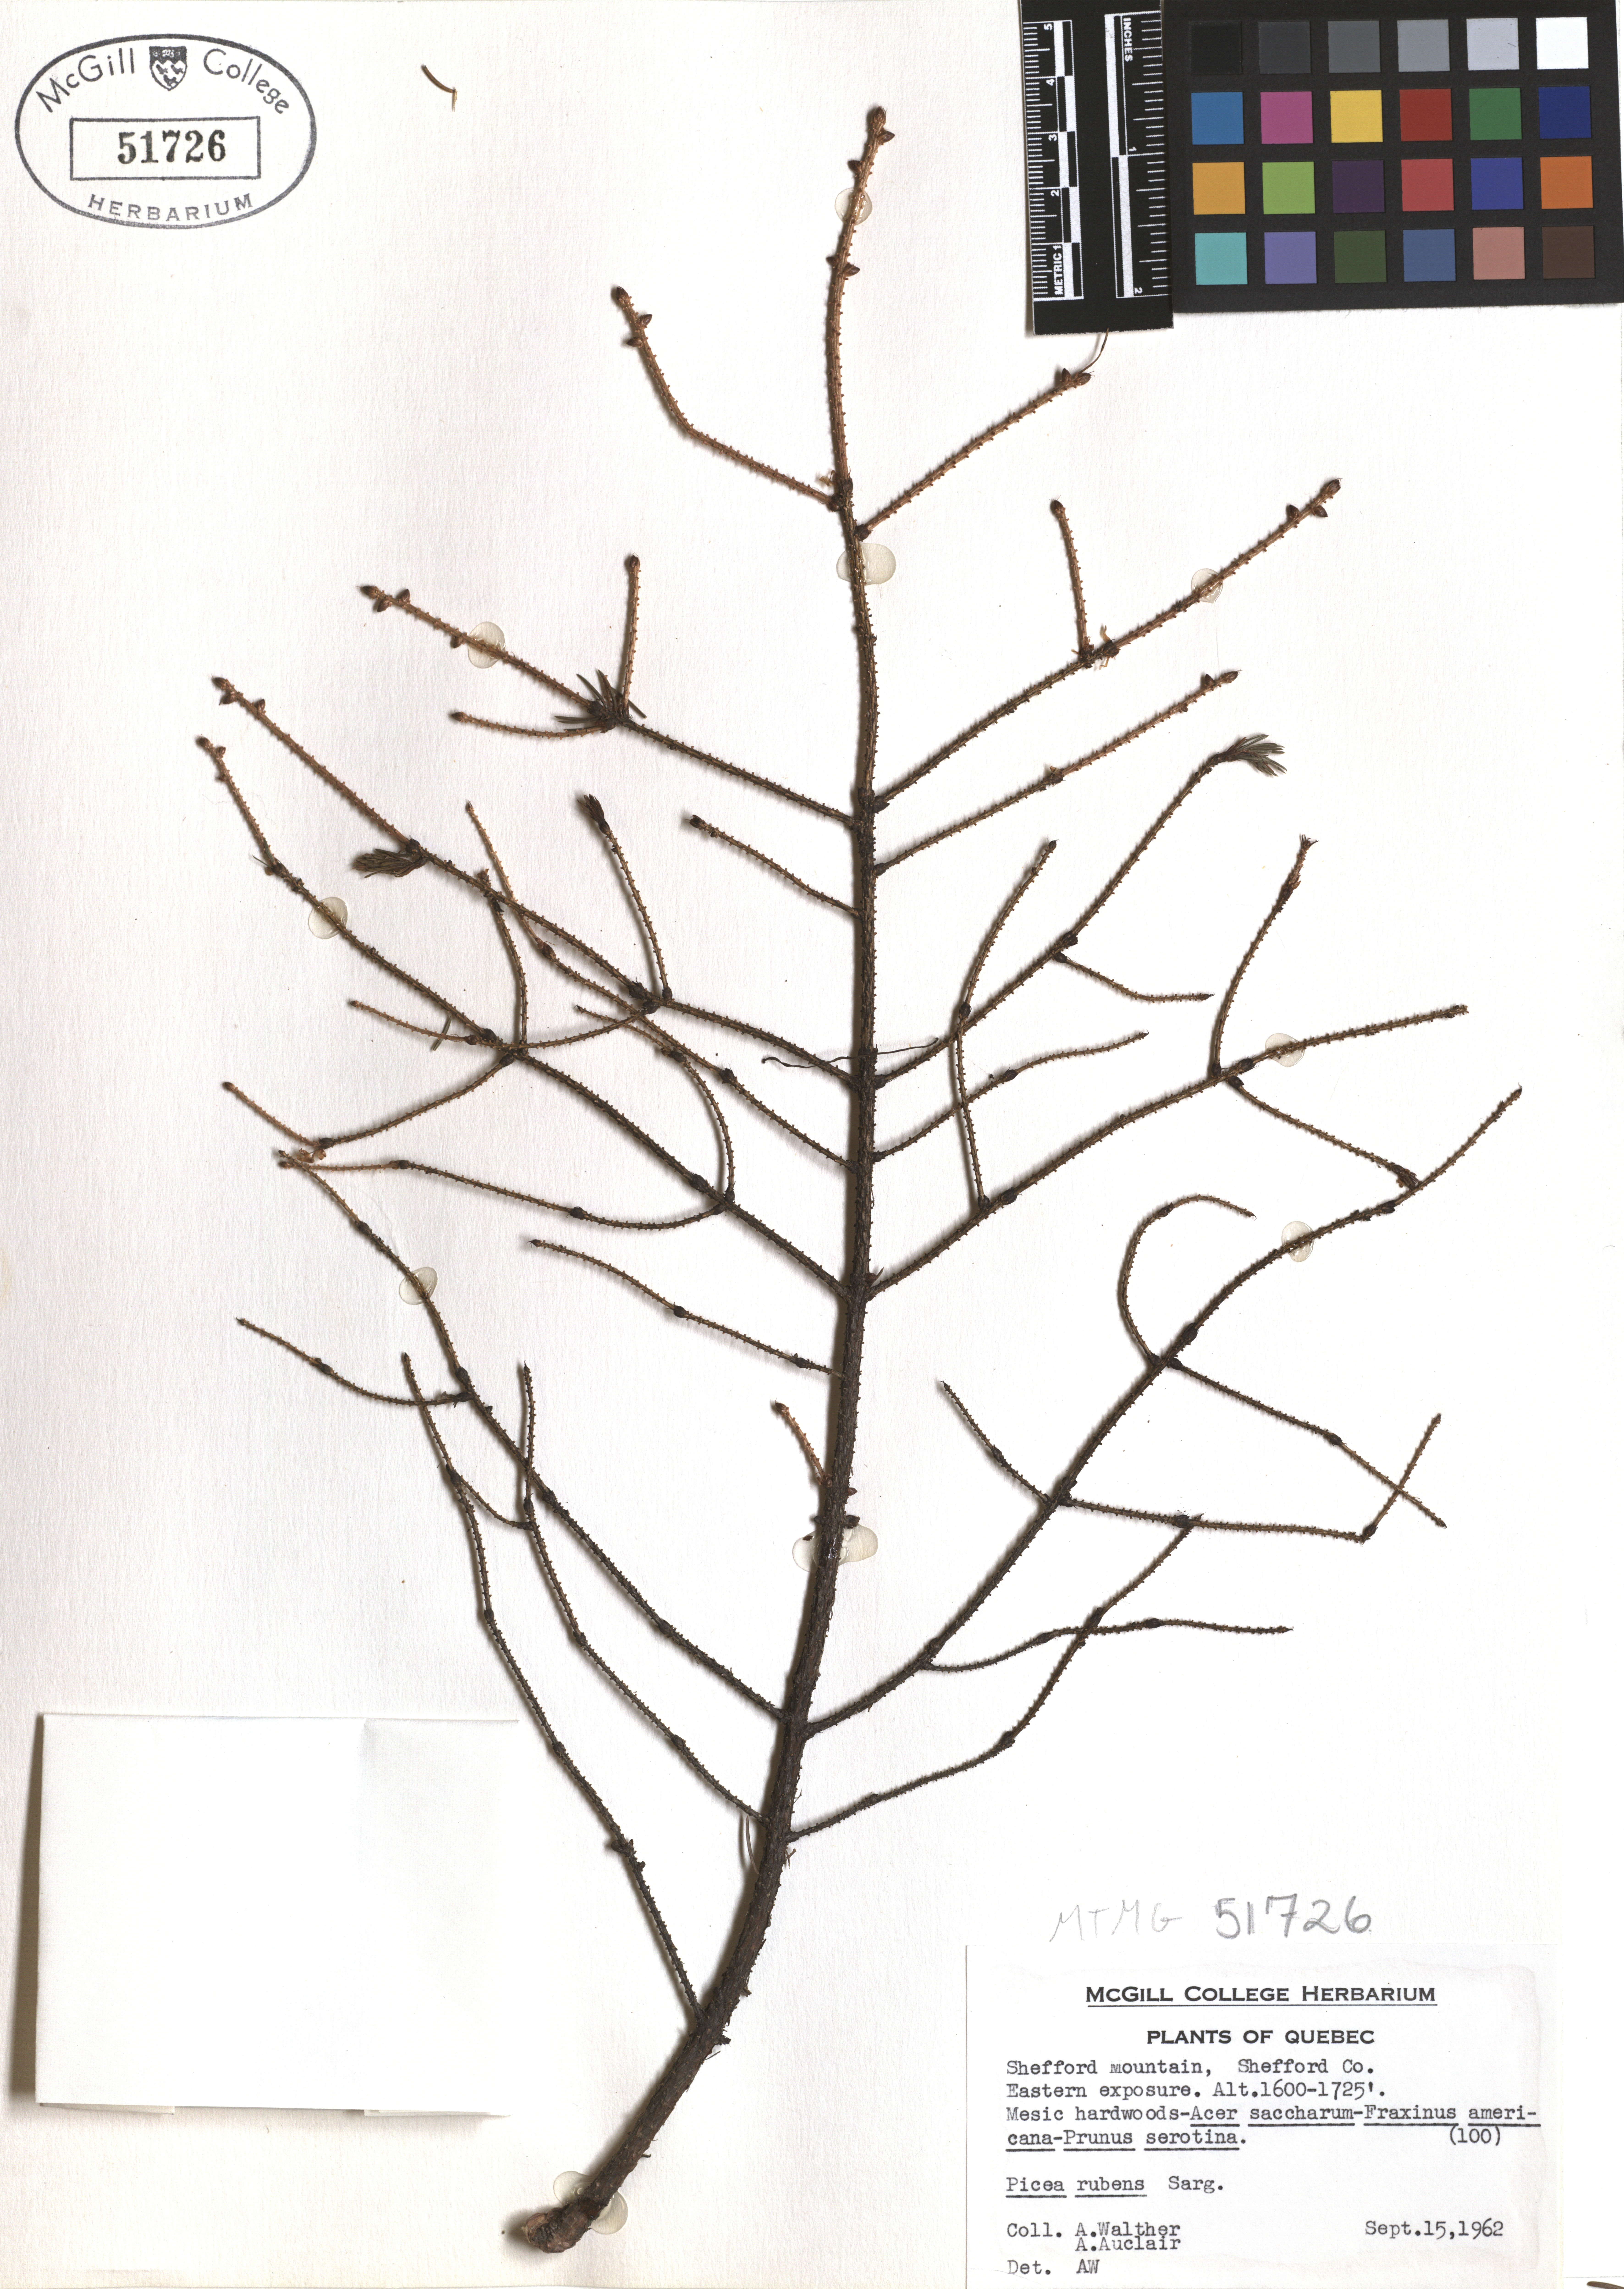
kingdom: Plantae
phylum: Tracheophyta
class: Pinopsida
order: Pinales
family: Pinaceae
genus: Picea
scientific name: Picea rubens
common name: Red spruce
